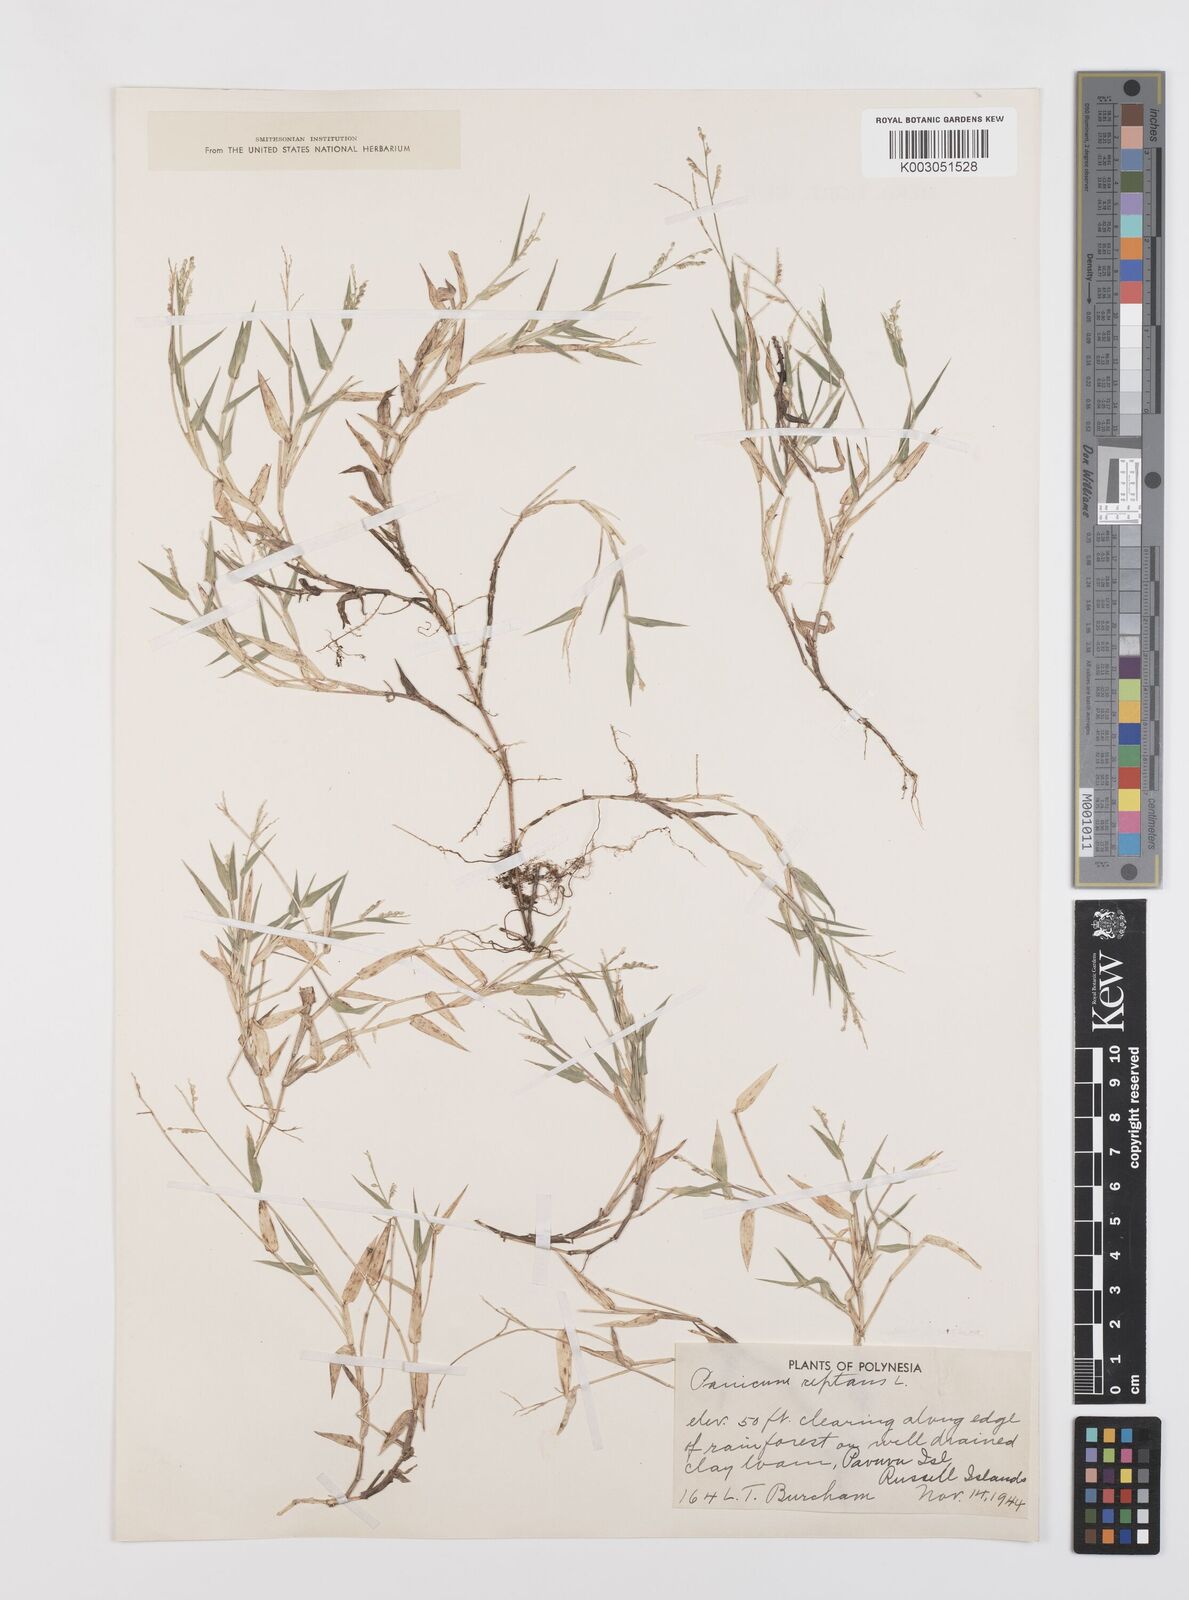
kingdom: Plantae
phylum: Tracheophyta
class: Liliopsida
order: Poales
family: Poaceae
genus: Urochloa
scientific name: Urochloa reptans
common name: Sprawling signalgrass
